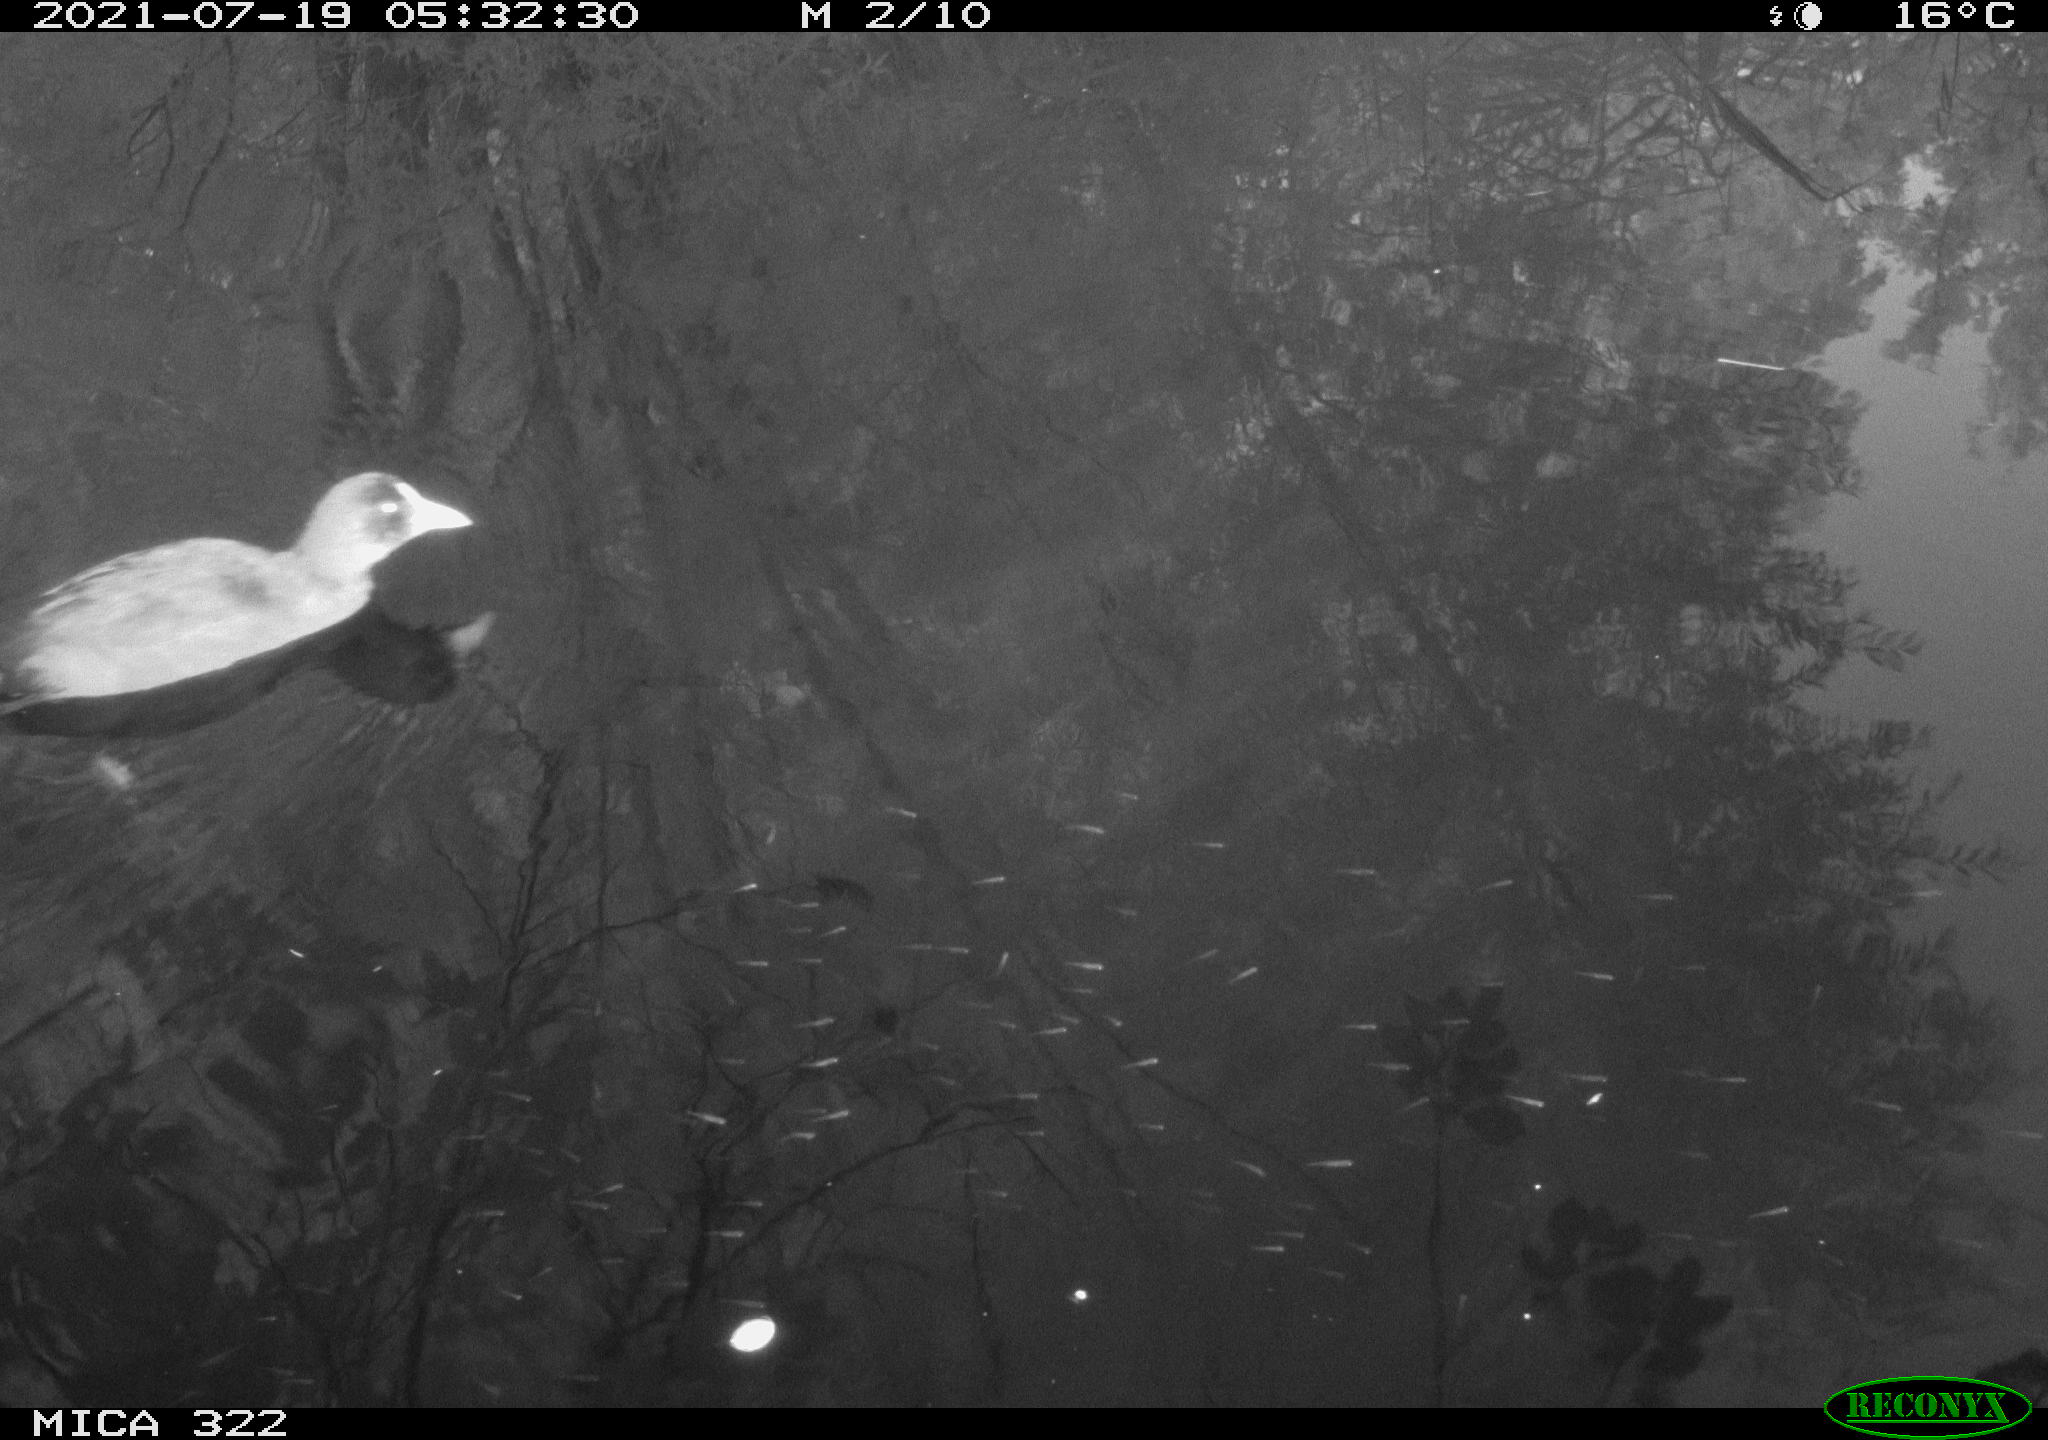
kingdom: Animalia
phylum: Chordata
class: Aves
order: Gruiformes
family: Rallidae
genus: Gallinula
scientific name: Gallinula chloropus
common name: Common moorhen
